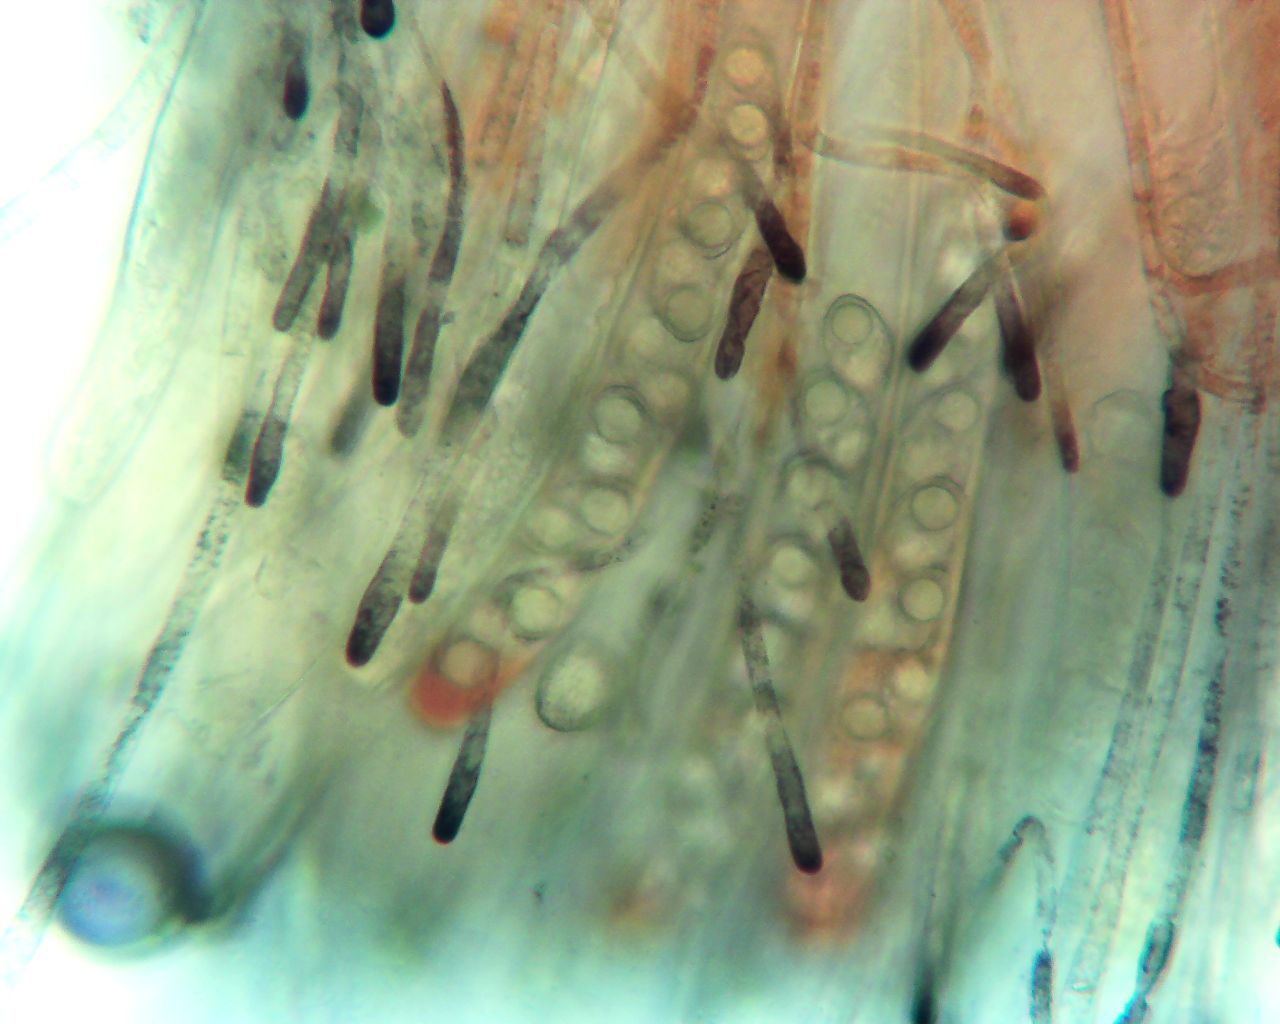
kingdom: Fungi
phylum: Ascomycota
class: Pezizomycetes
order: Pezizales
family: Pyronemataceae
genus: Neottiella
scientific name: Neottiella
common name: mosbæger
